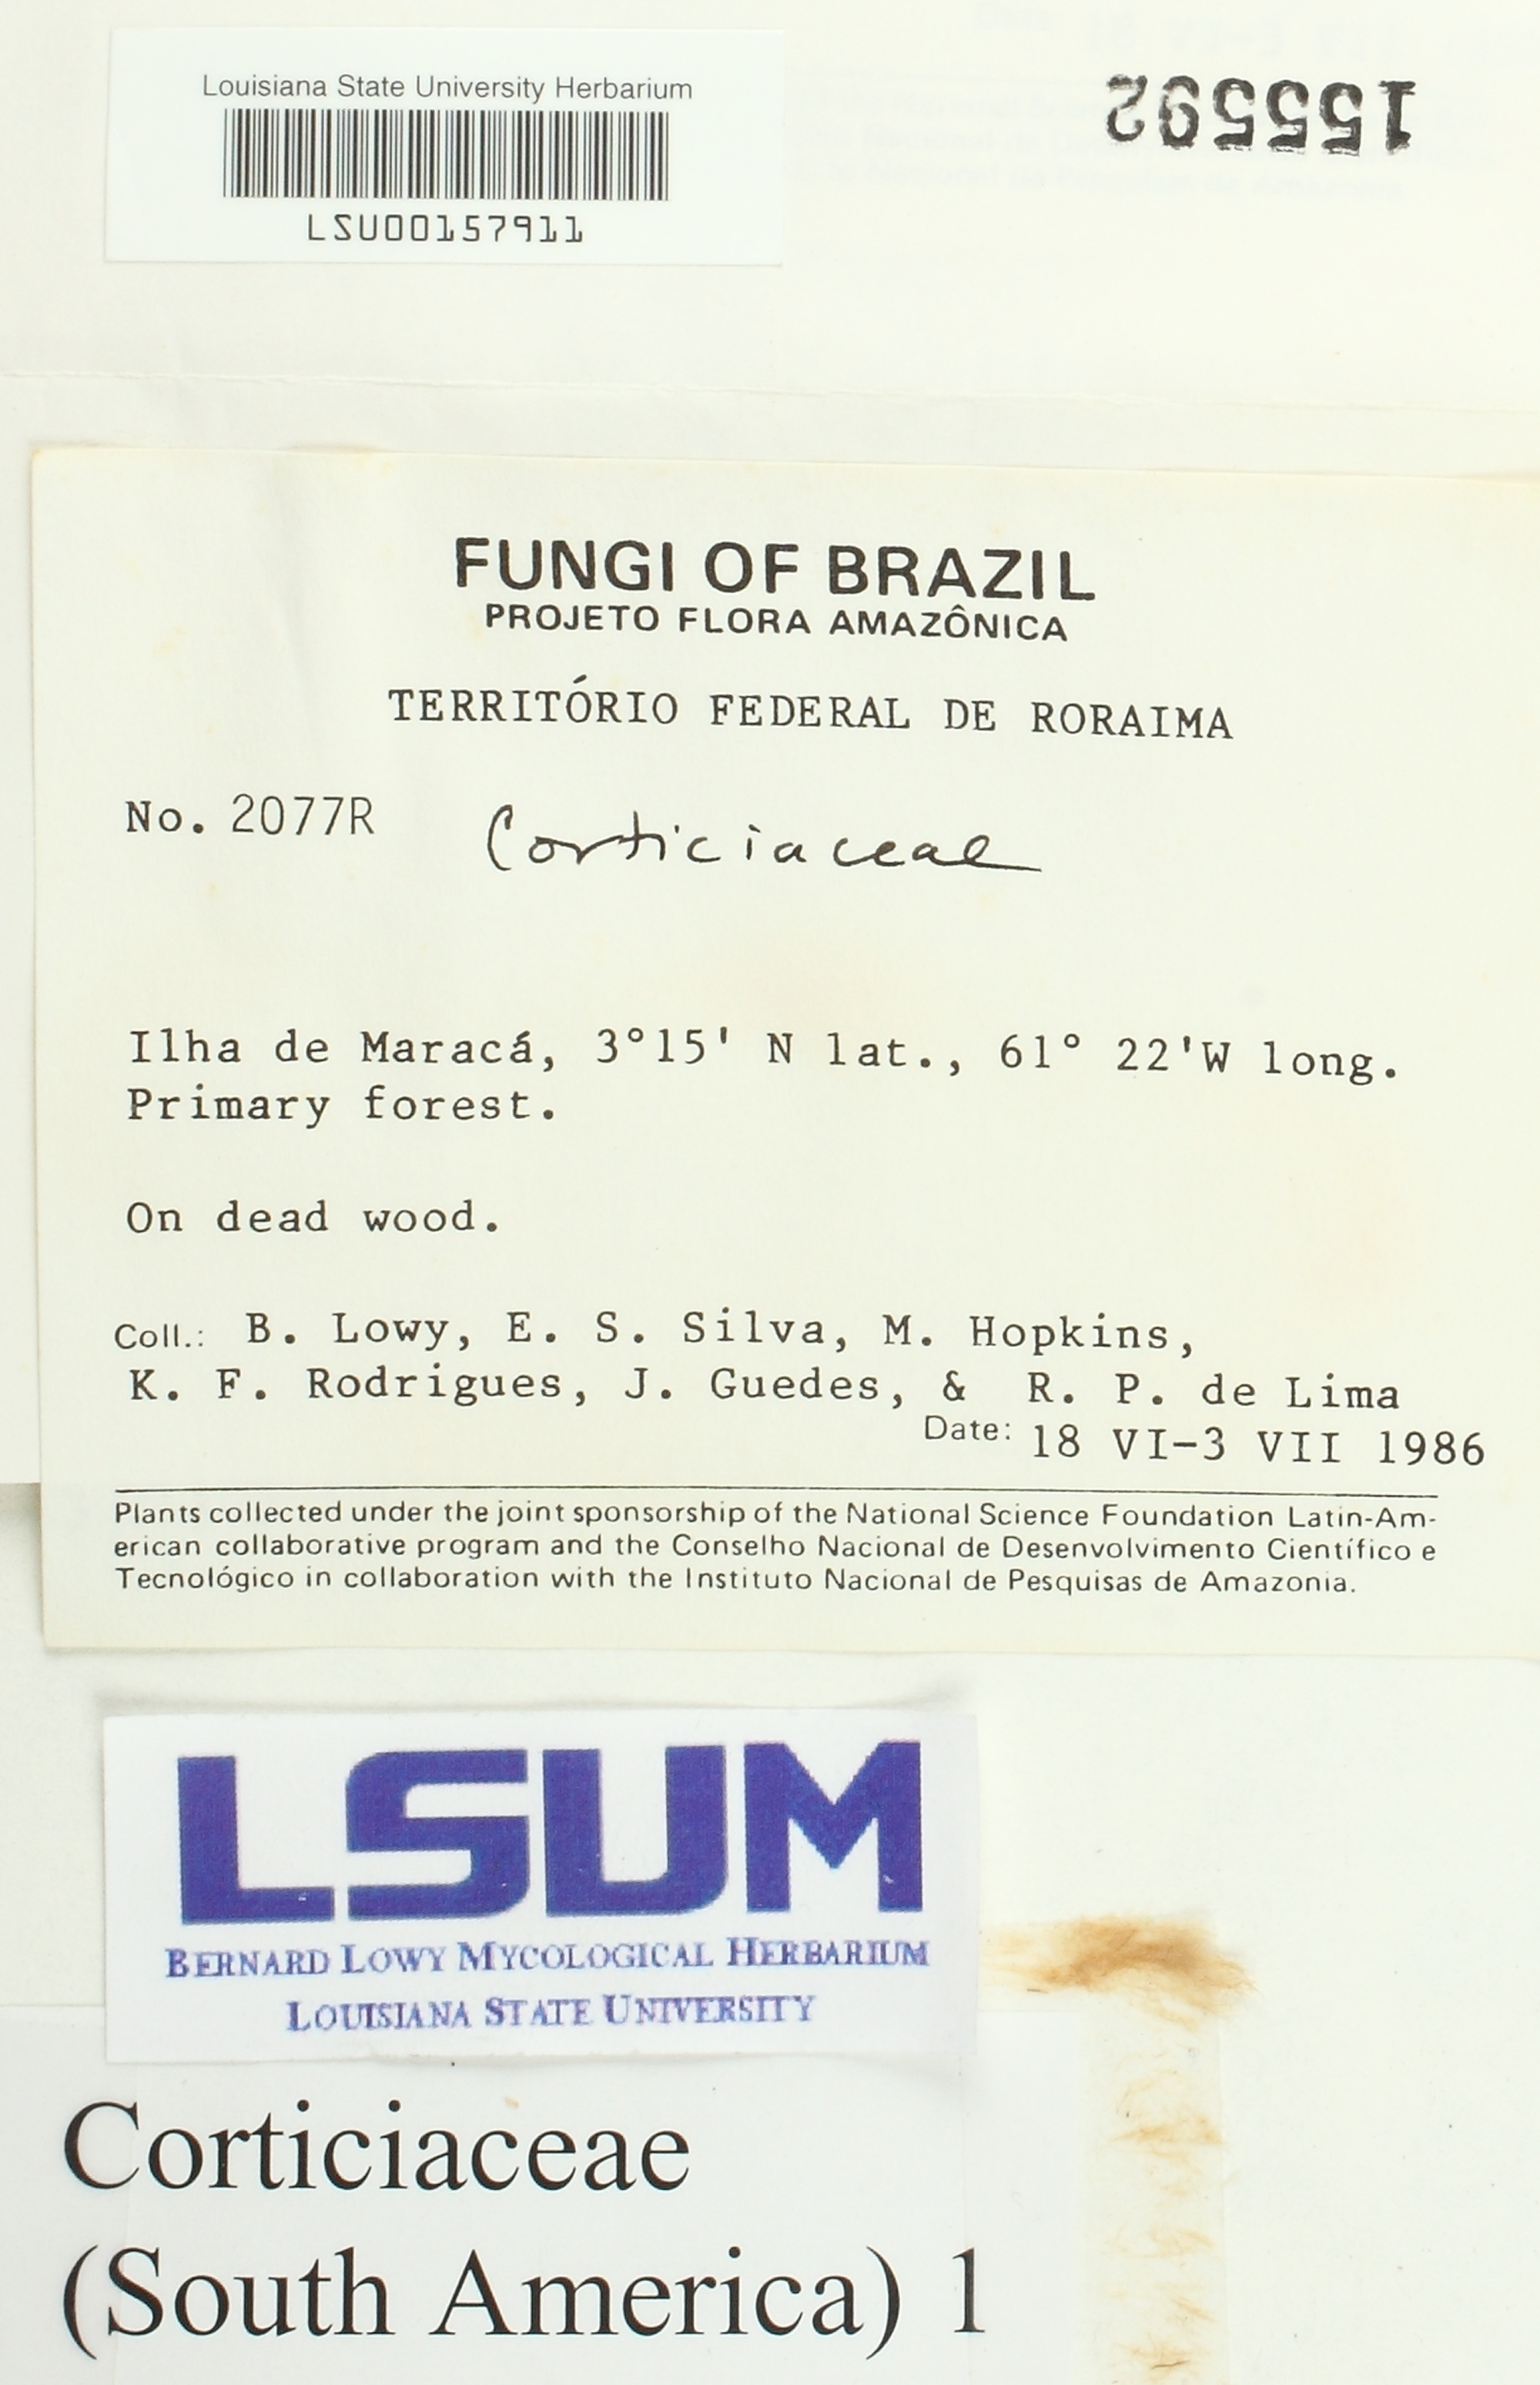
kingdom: Fungi
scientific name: Fungi
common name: Fungi
